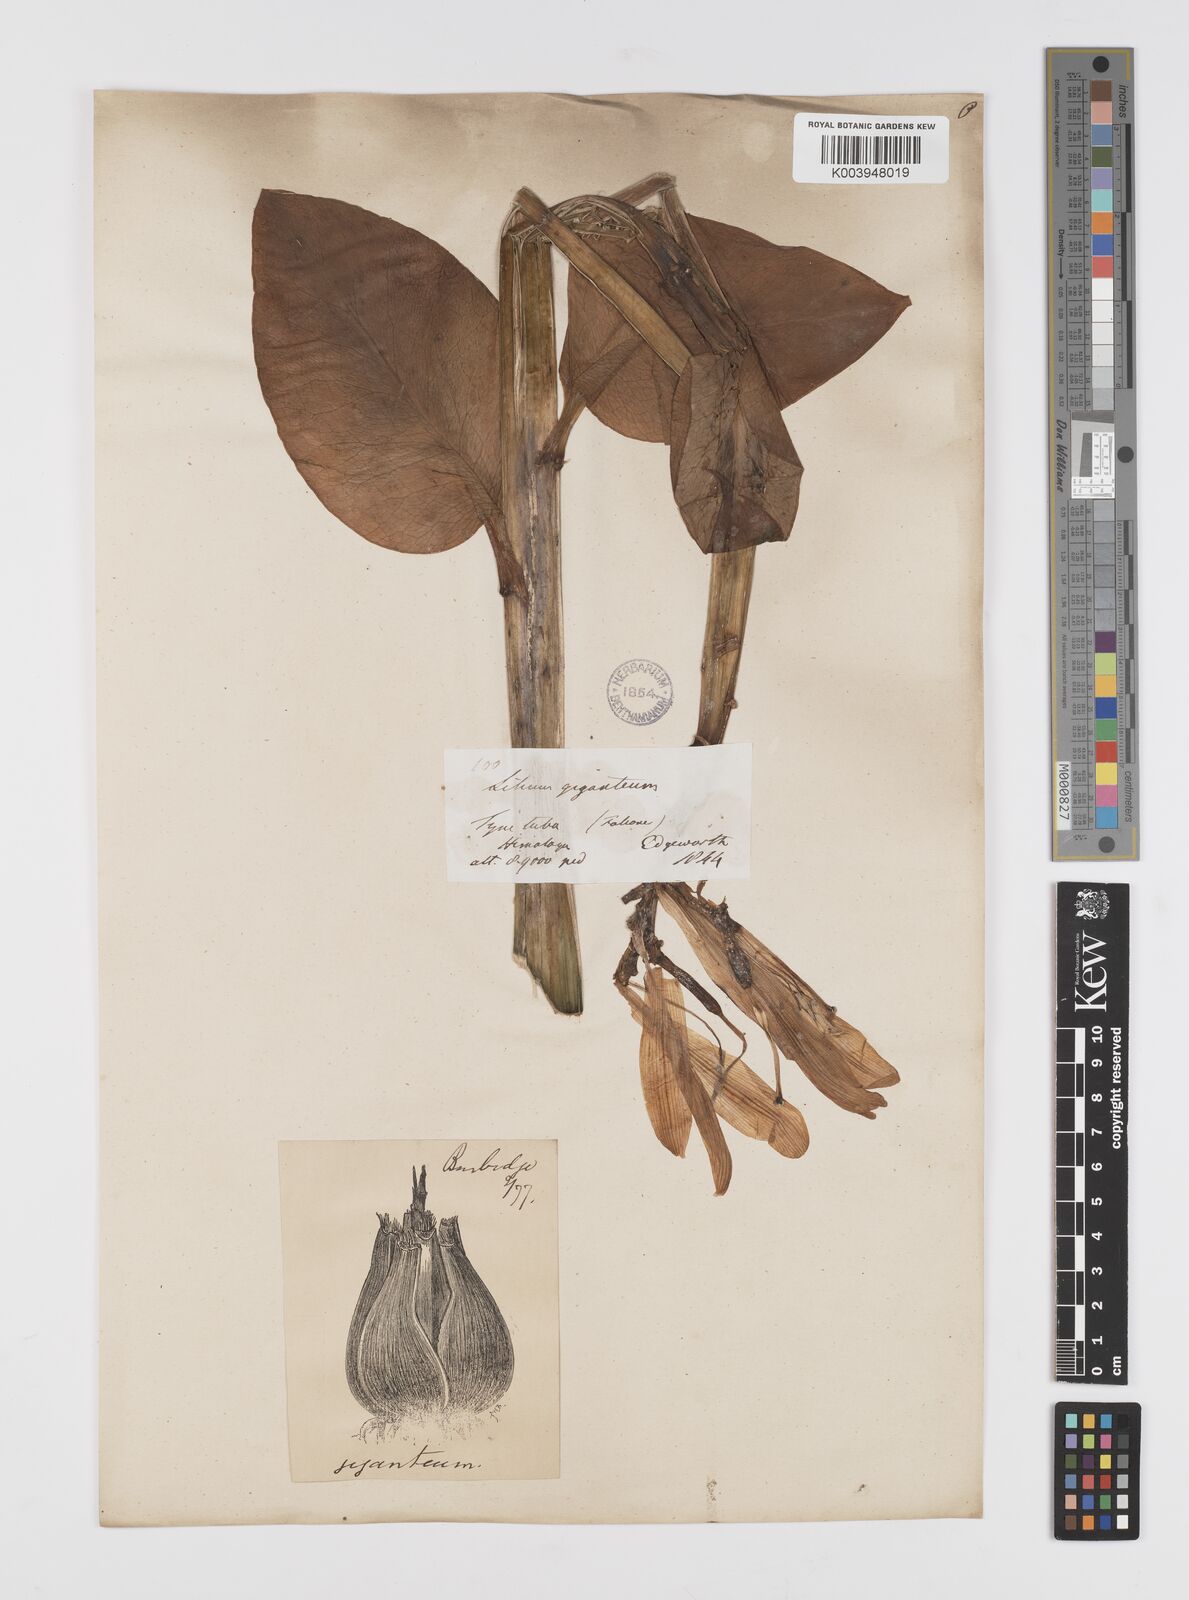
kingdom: Plantae
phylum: Tracheophyta
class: Liliopsida
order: Liliales
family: Liliaceae
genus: Cardiocrinum
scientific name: Cardiocrinum giganteum
